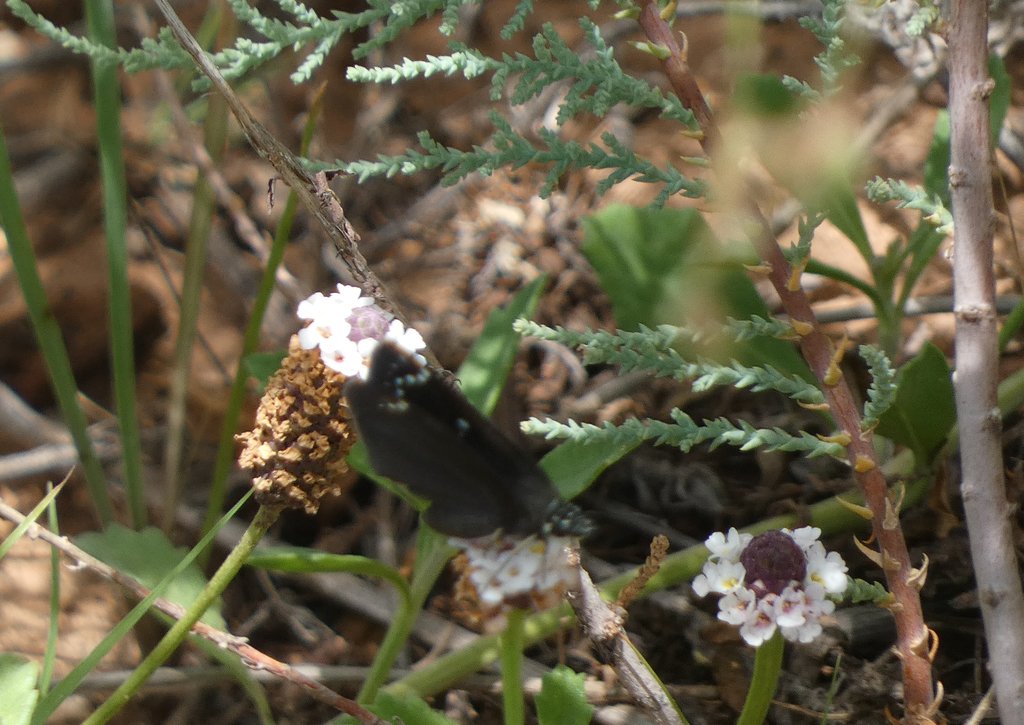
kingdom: Animalia
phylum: Arthropoda
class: Insecta
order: Lepidoptera
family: Hesperiidae
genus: Pholisora
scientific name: Pholisora catullus
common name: Common Sootywing
